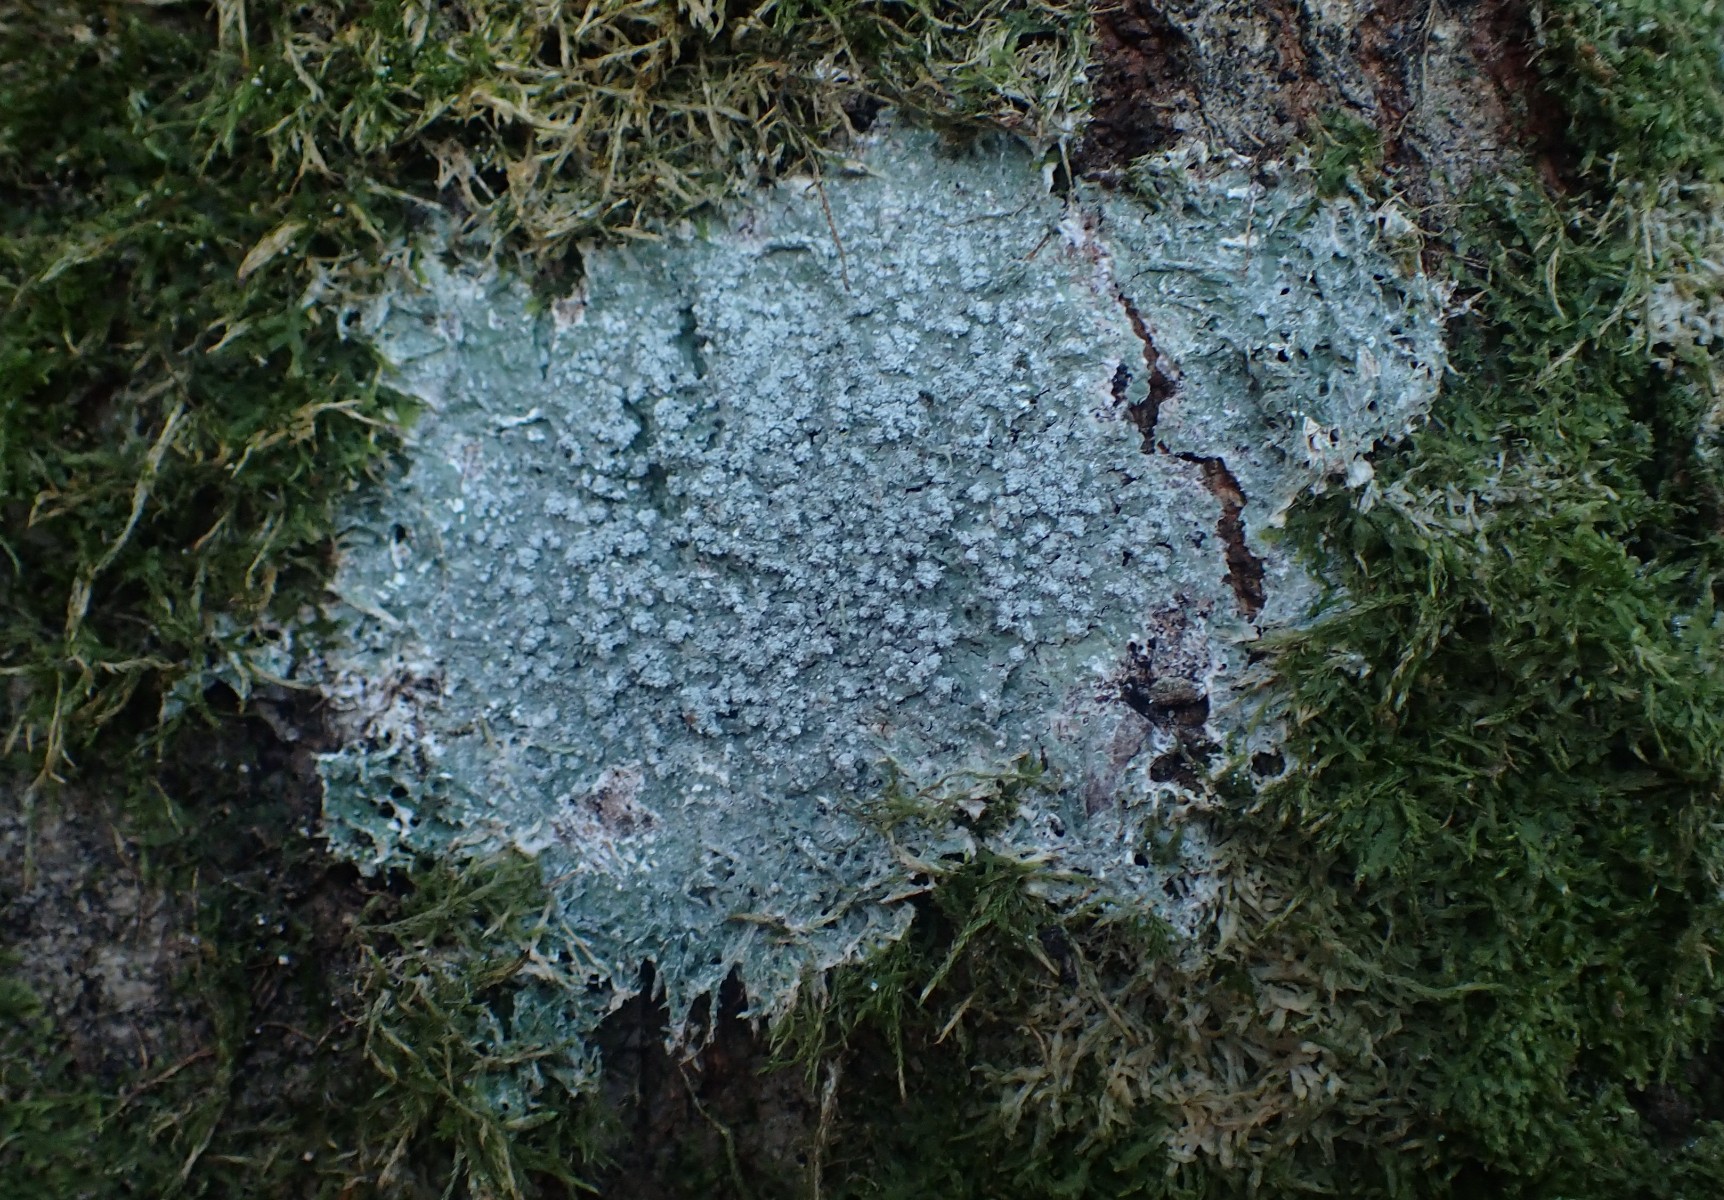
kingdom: Fungi
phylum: Ascomycota
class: Lecanoromycetes
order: Pertusariales
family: Pertusariaceae
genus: Lepra
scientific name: Lepra amara
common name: bitter prikvortelav
